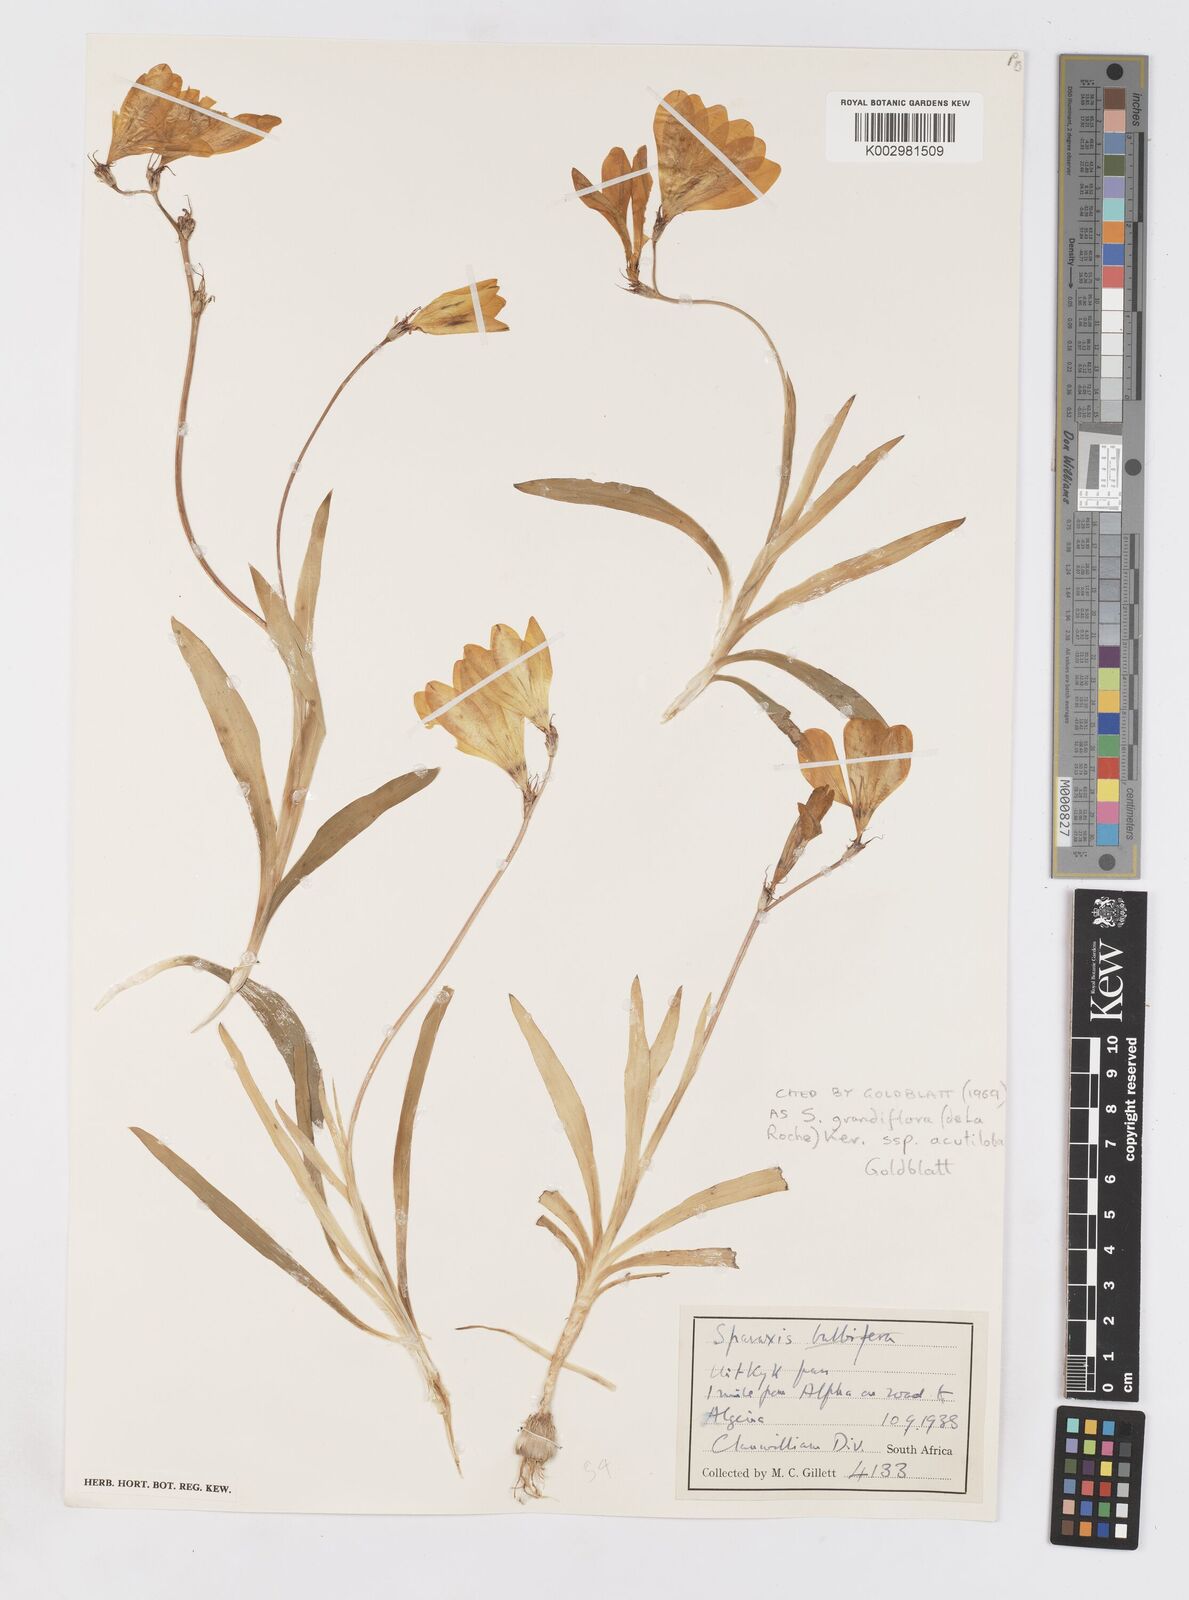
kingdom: Plantae
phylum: Tracheophyta
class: Liliopsida
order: Asparagales
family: Iridaceae
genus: Sparaxis
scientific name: Sparaxis grandiflora
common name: Plain harlequin-flower
